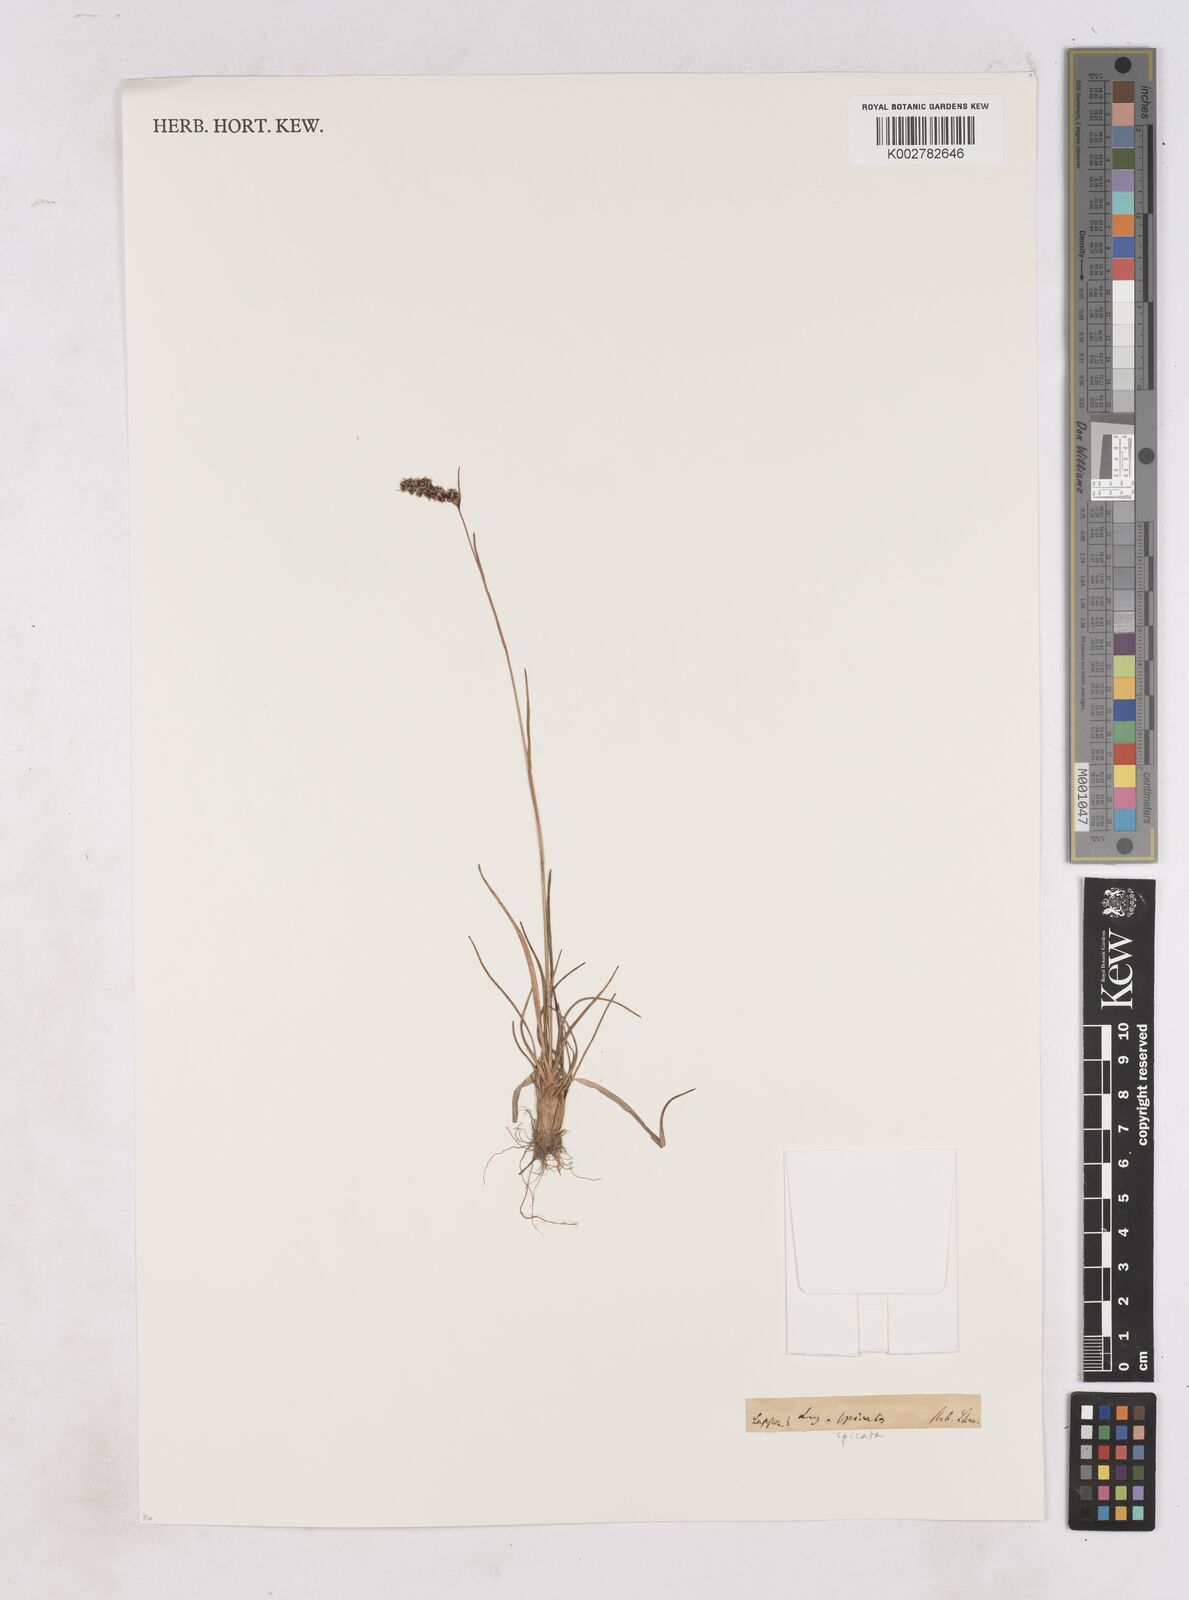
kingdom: Plantae
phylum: Tracheophyta
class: Liliopsida
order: Poales
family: Juncaceae
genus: Luzula
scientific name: Luzula spicata
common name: Spiked wood-rush
